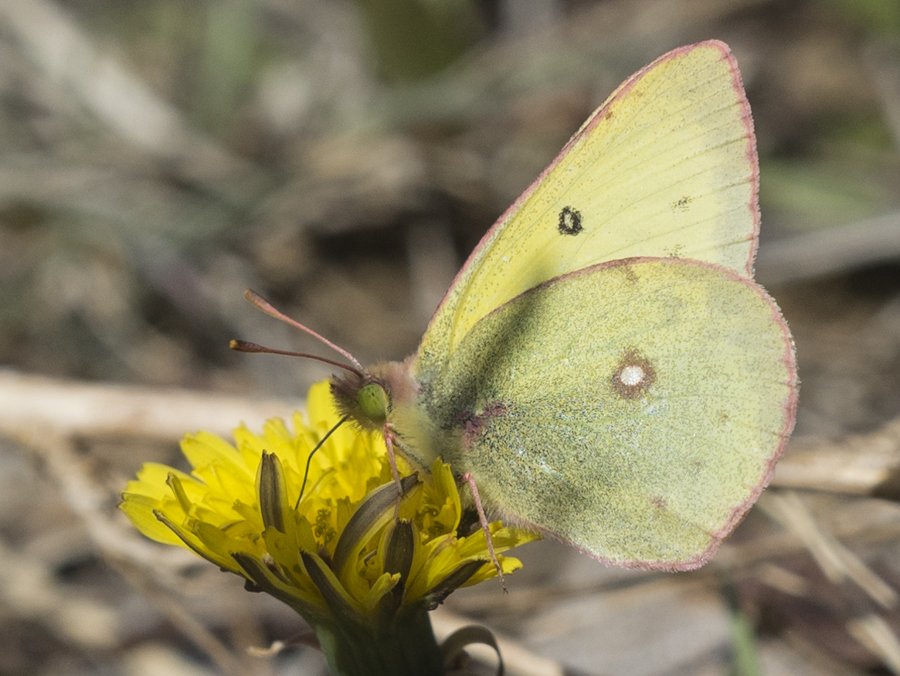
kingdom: Animalia
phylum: Arthropoda
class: Insecta
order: Lepidoptera
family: Pieridae
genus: Colias
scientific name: Colias philodice
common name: Clouded Sulphur
